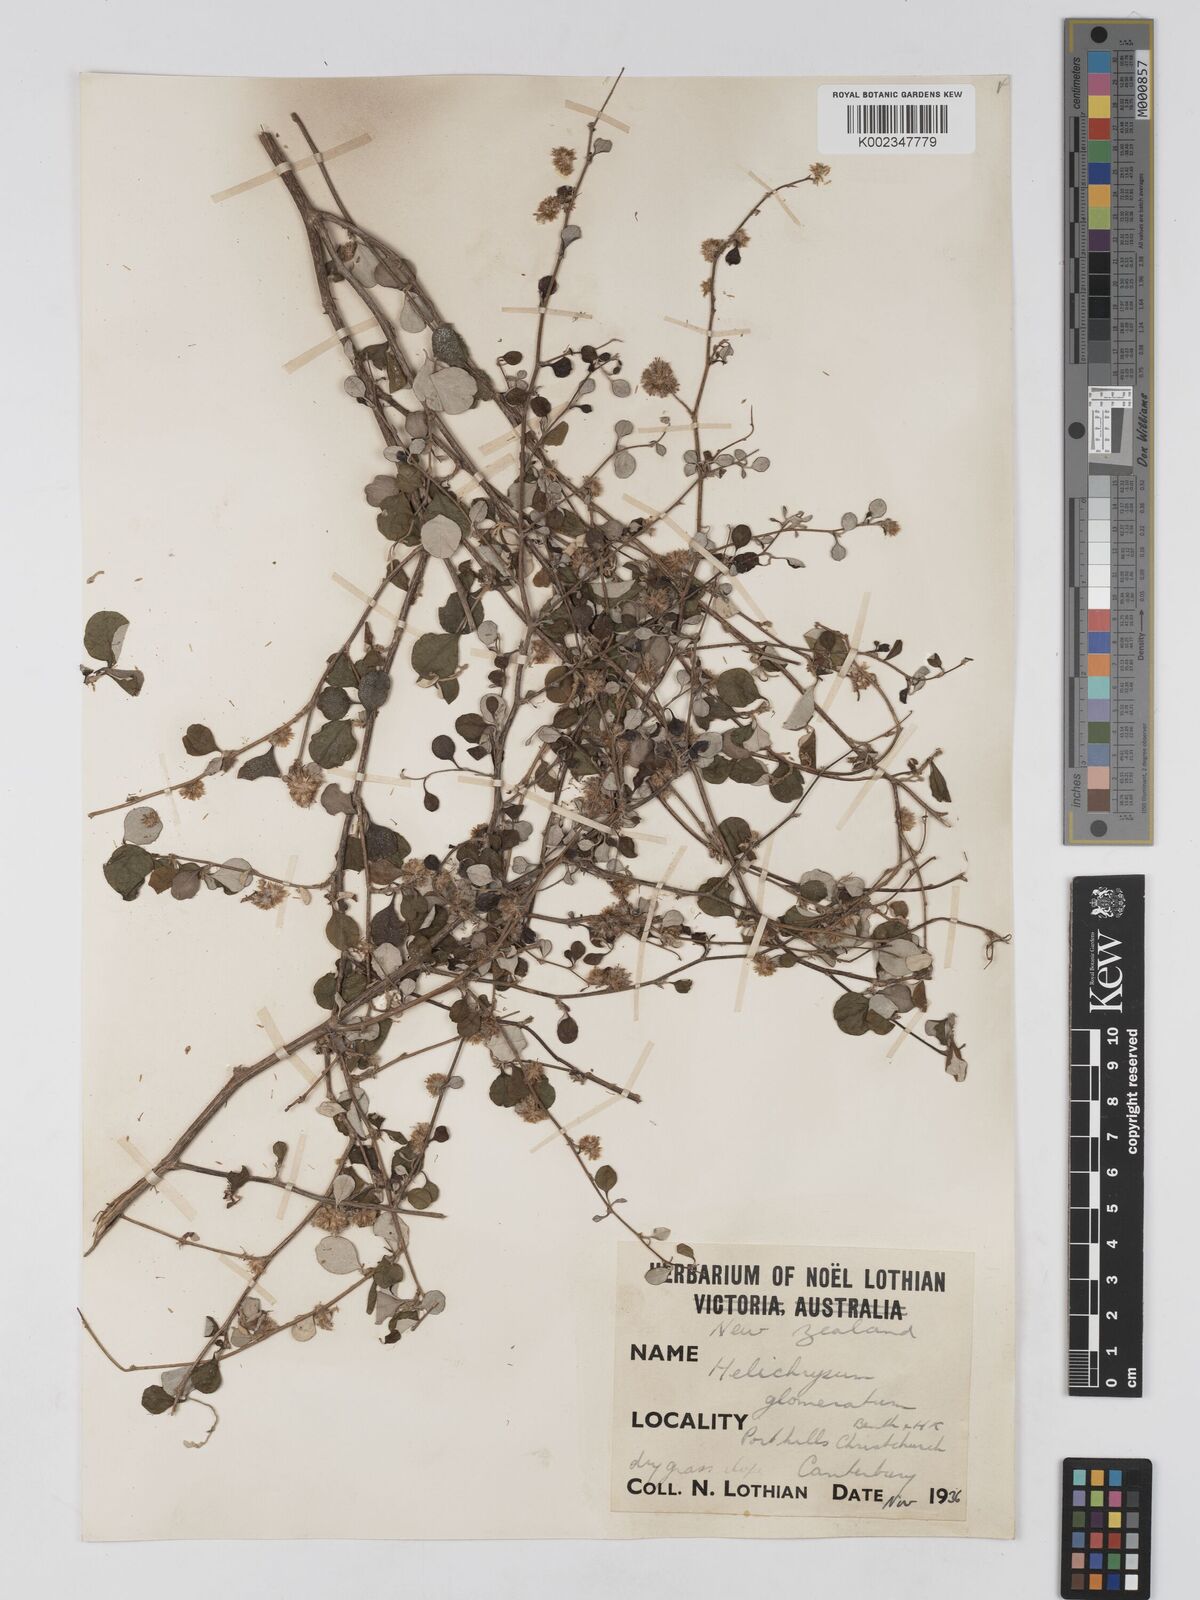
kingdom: Plantae
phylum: Tracheophyta
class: Magnoliopsida
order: Asterales
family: Asteraceae
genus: Ozothamnus
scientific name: Ozothamnus glomeratus
